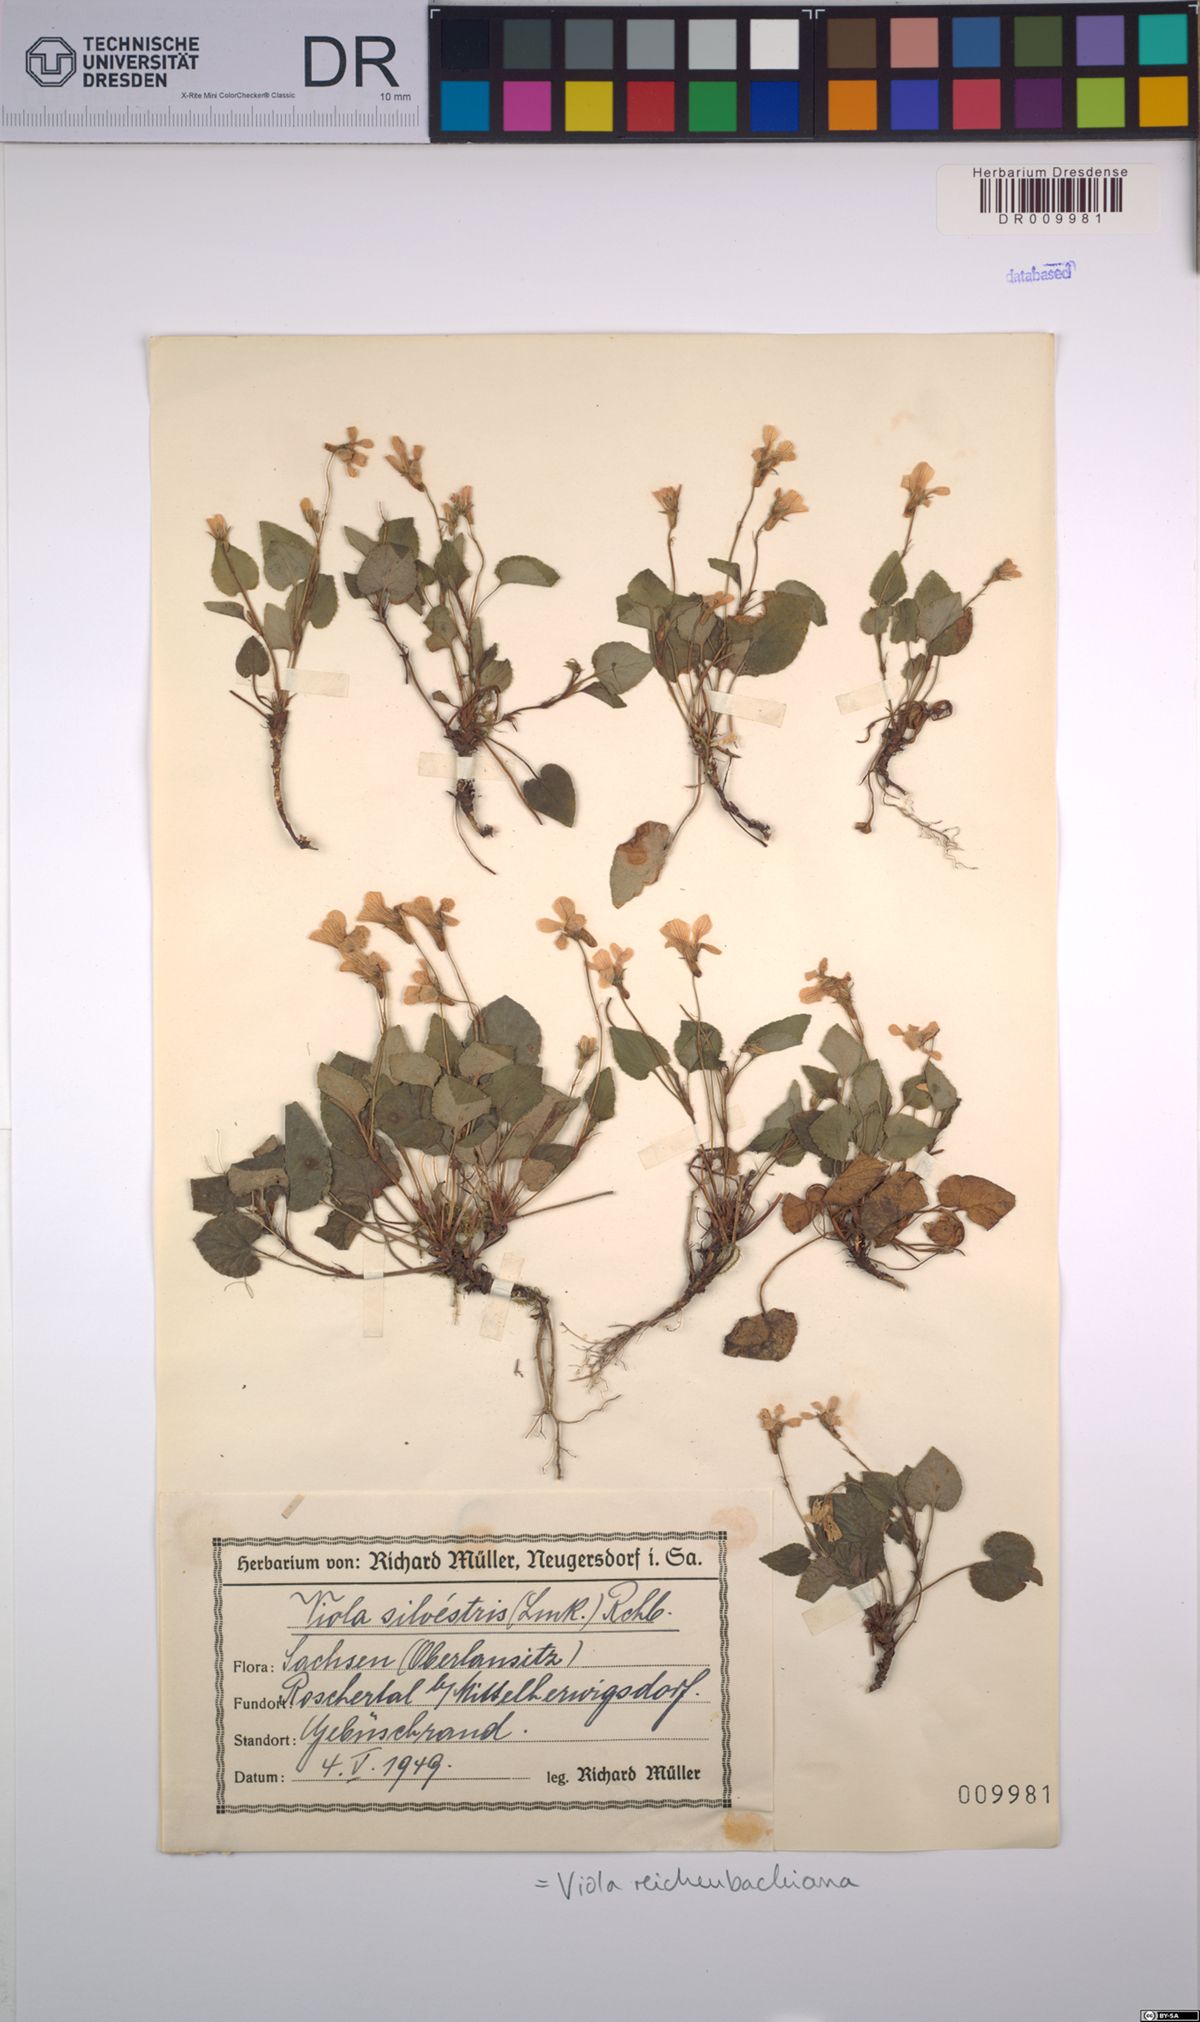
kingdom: Plantae
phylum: Tracheophyta
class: Magnoliopsida
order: Malpighiales
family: Violaceae
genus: Viola
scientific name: Viola reichenbachiana
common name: Early dog-violet
